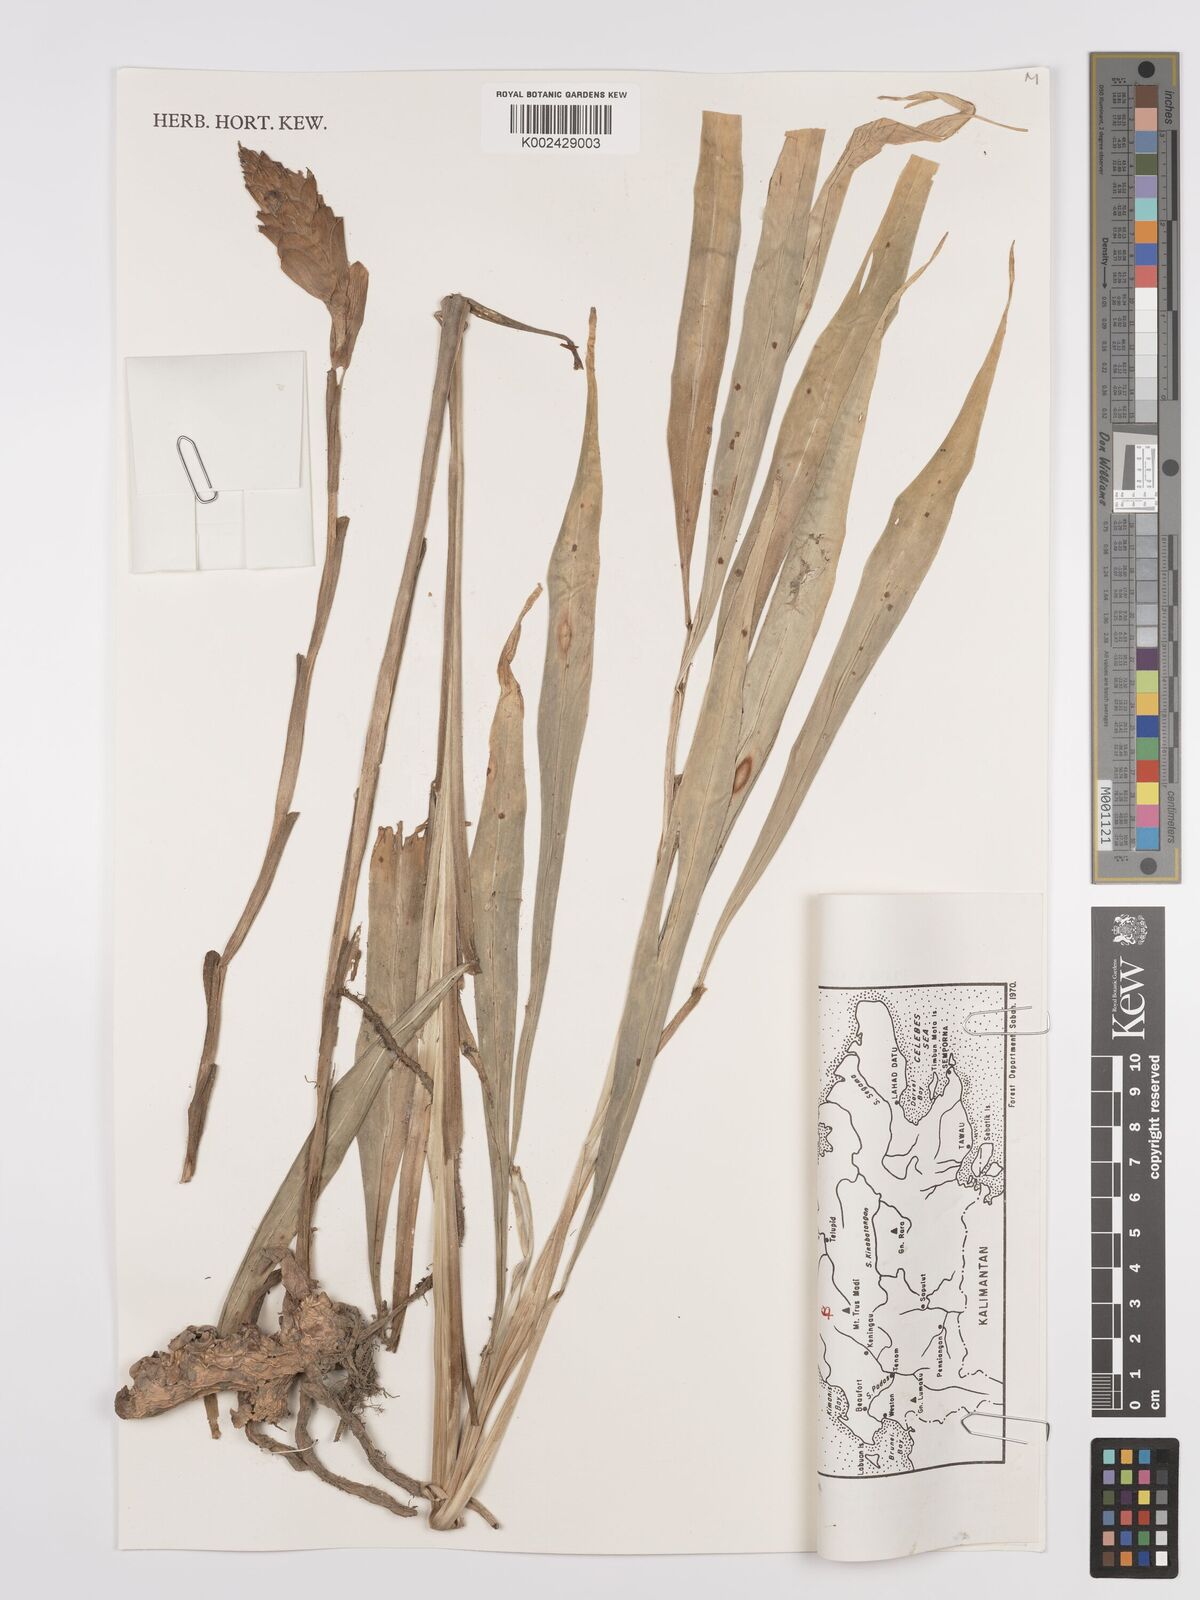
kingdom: Plantae
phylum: Tracheophyta
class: Liliopsida
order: Zingiberales
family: Zingiberaceae
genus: Zingiber
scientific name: Zingiber officinale
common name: Ginger
